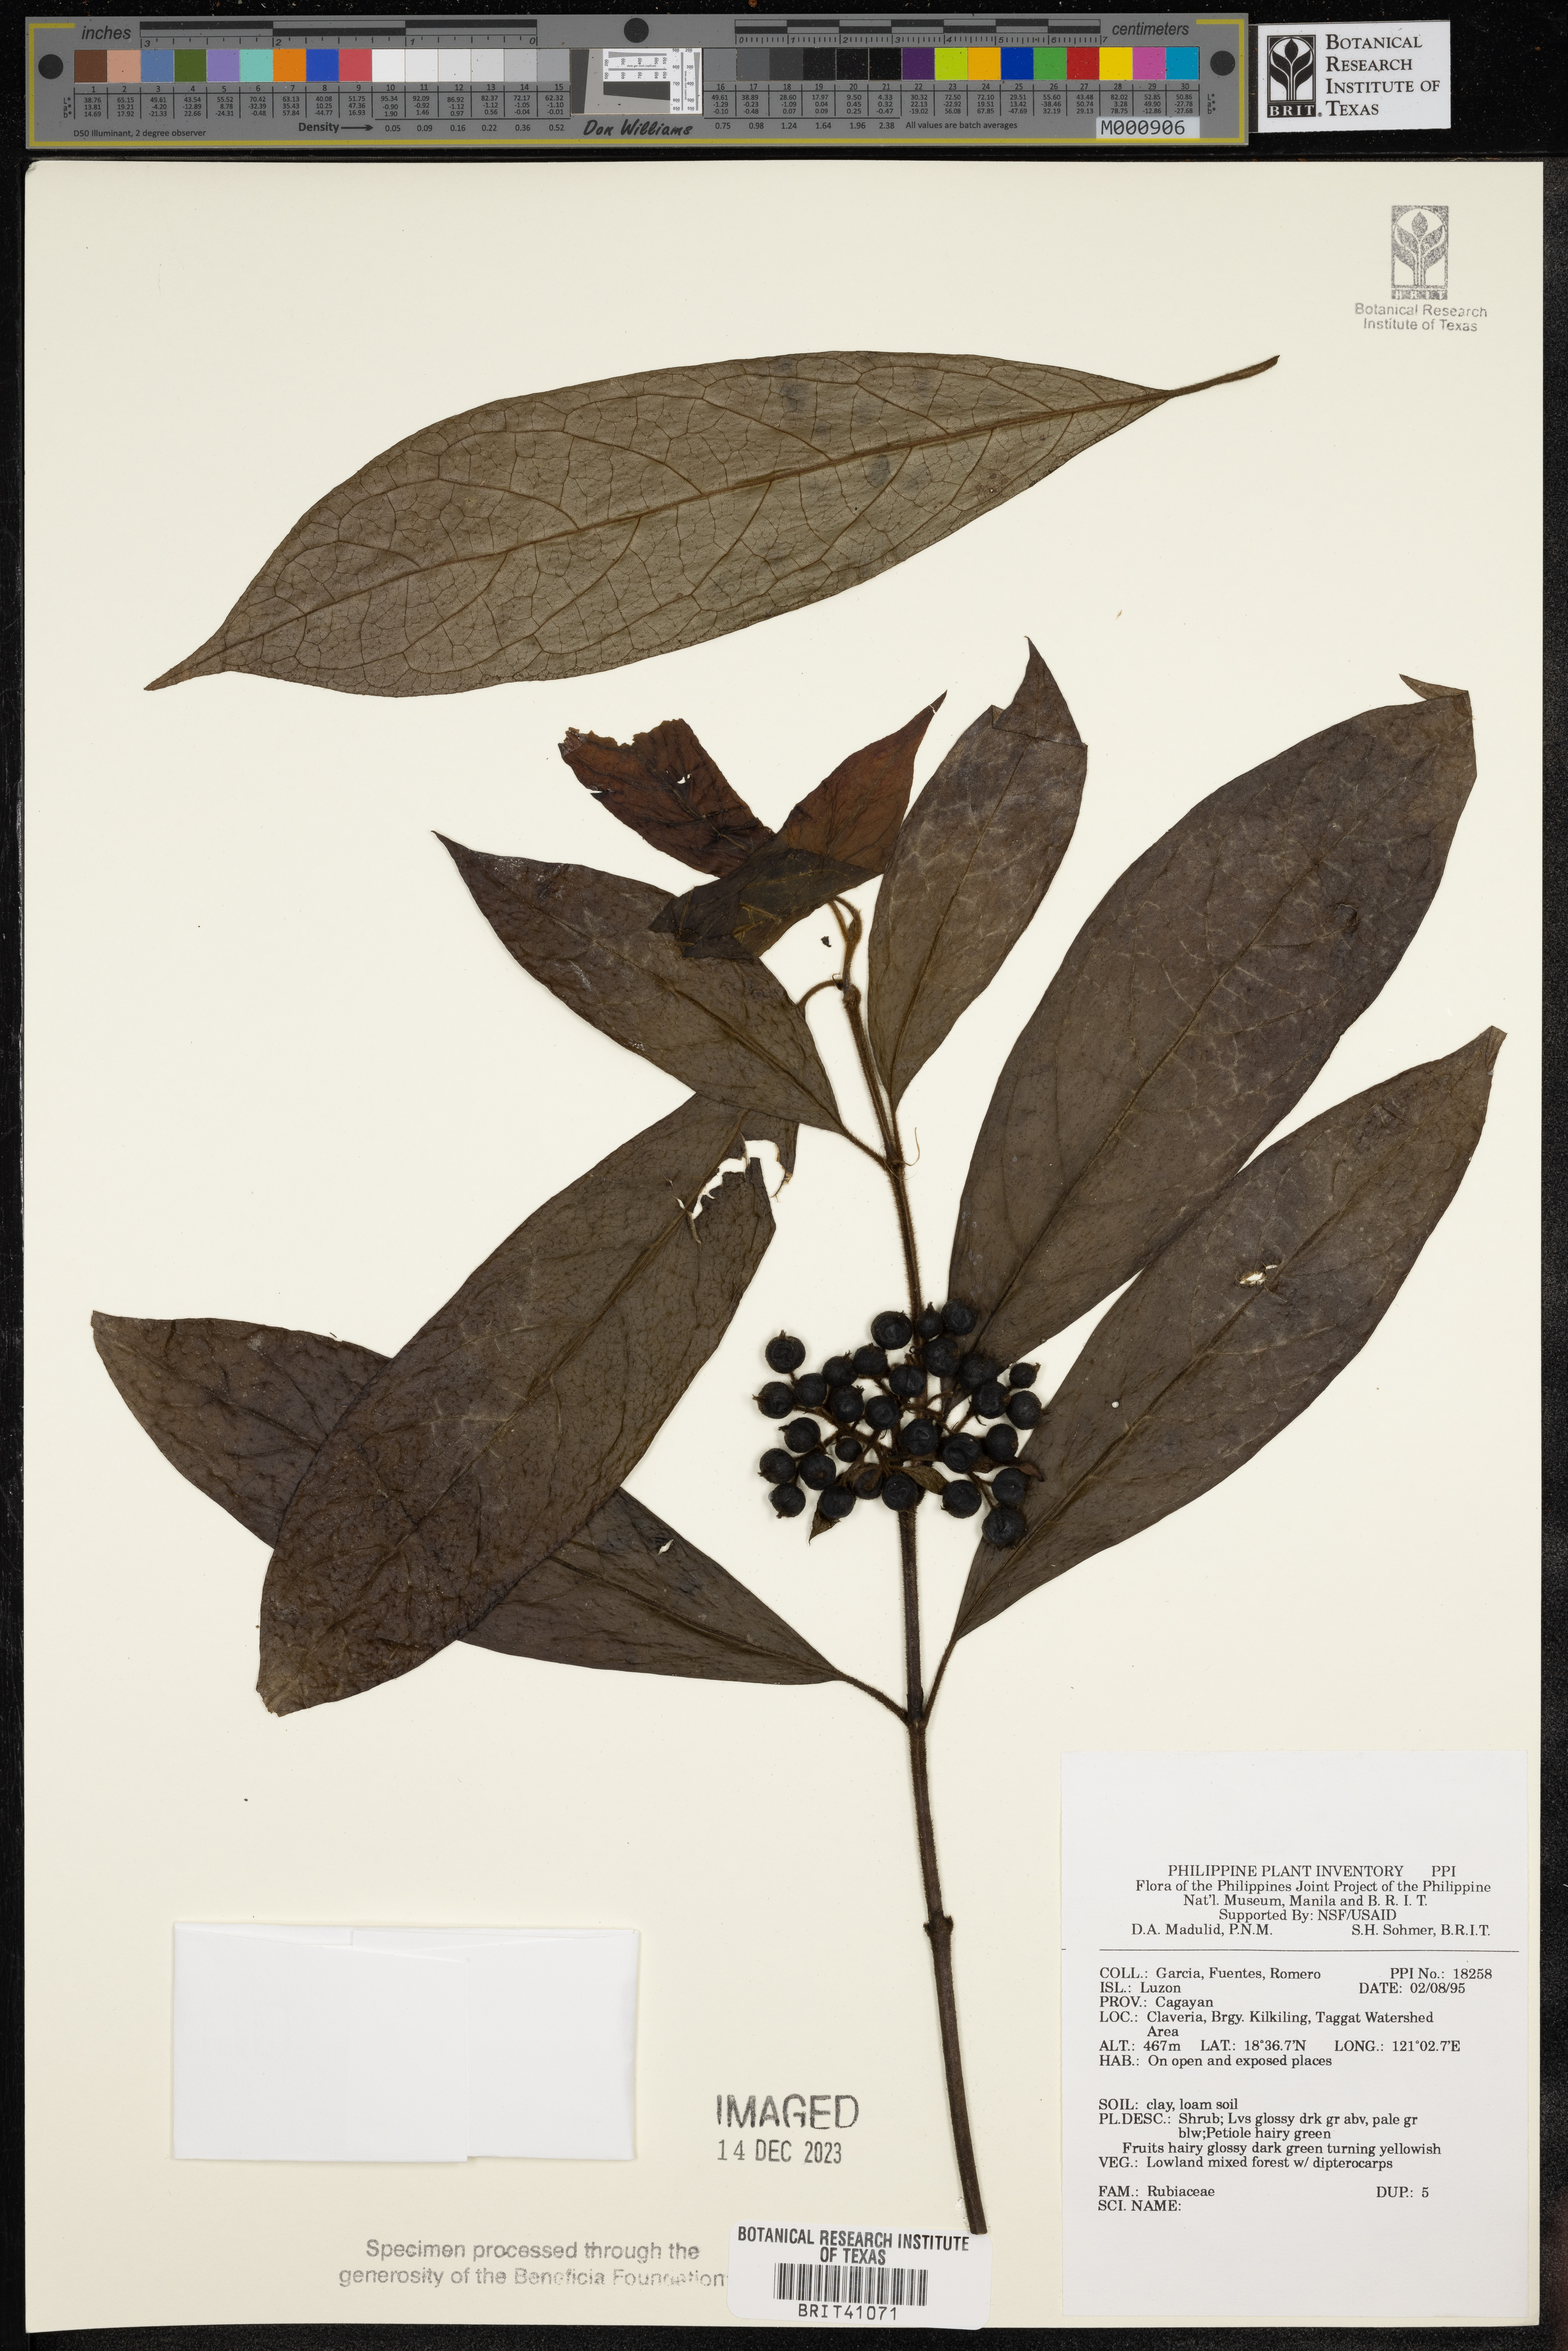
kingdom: Plantae
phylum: Tracheophyta
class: Magnoliopsida
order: Gentianales
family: Rubiaceae
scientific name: Rubiaceae
